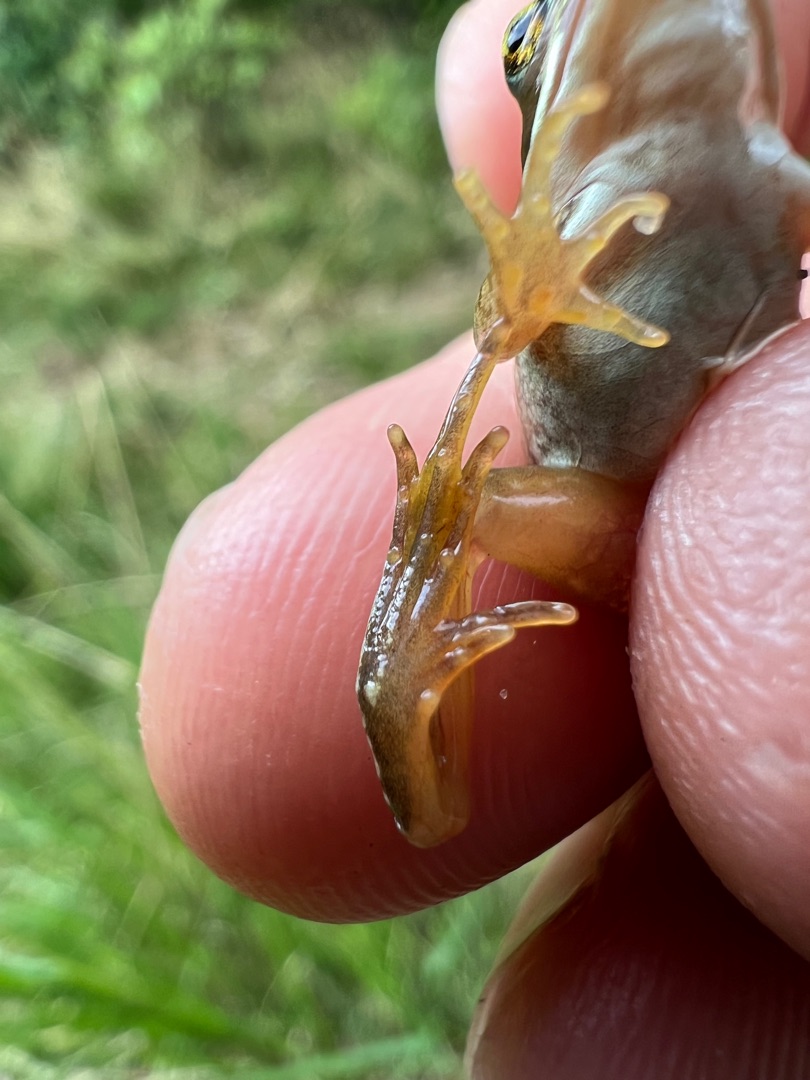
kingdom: Animalia
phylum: Chordata
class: Amphibia
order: Anura
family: Ranidae
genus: Rana
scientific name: Rana temporaria
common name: Butsnudet frø
